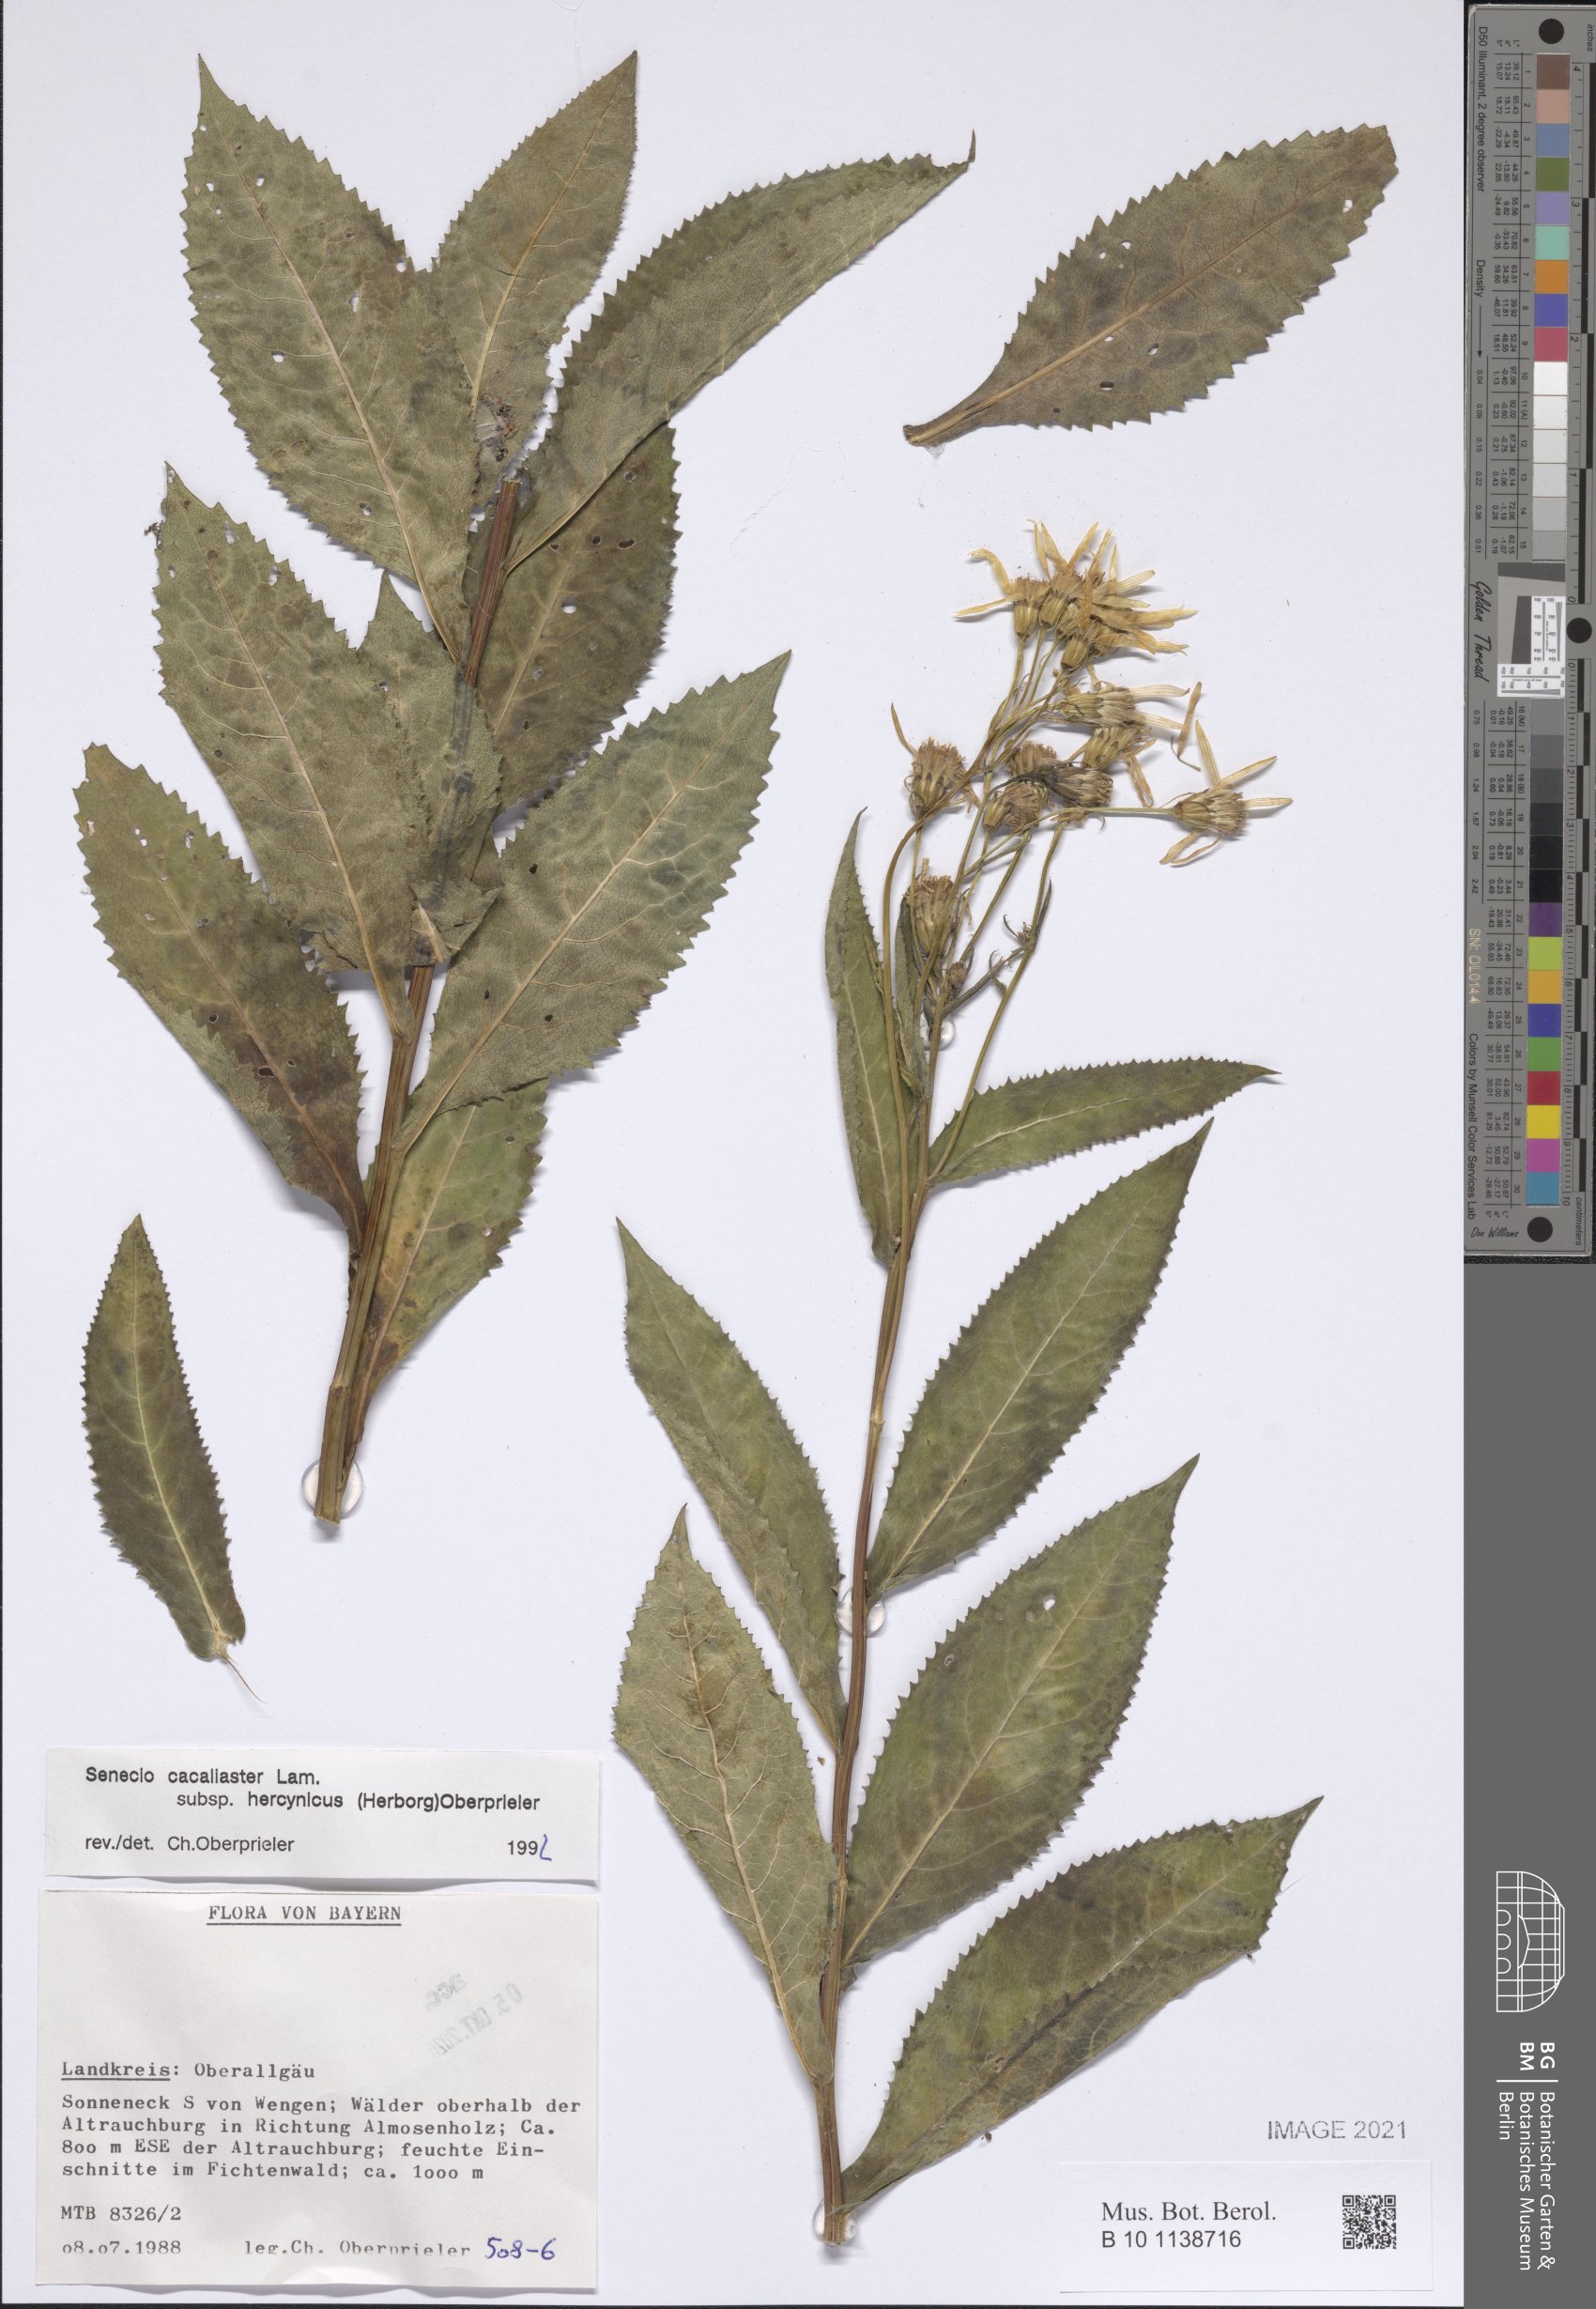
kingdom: Plantae
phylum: Tracheophyta
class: Magnoliopsida
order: Asterales
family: Asteraceae
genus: Senecio
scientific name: Senecio hercynicus
